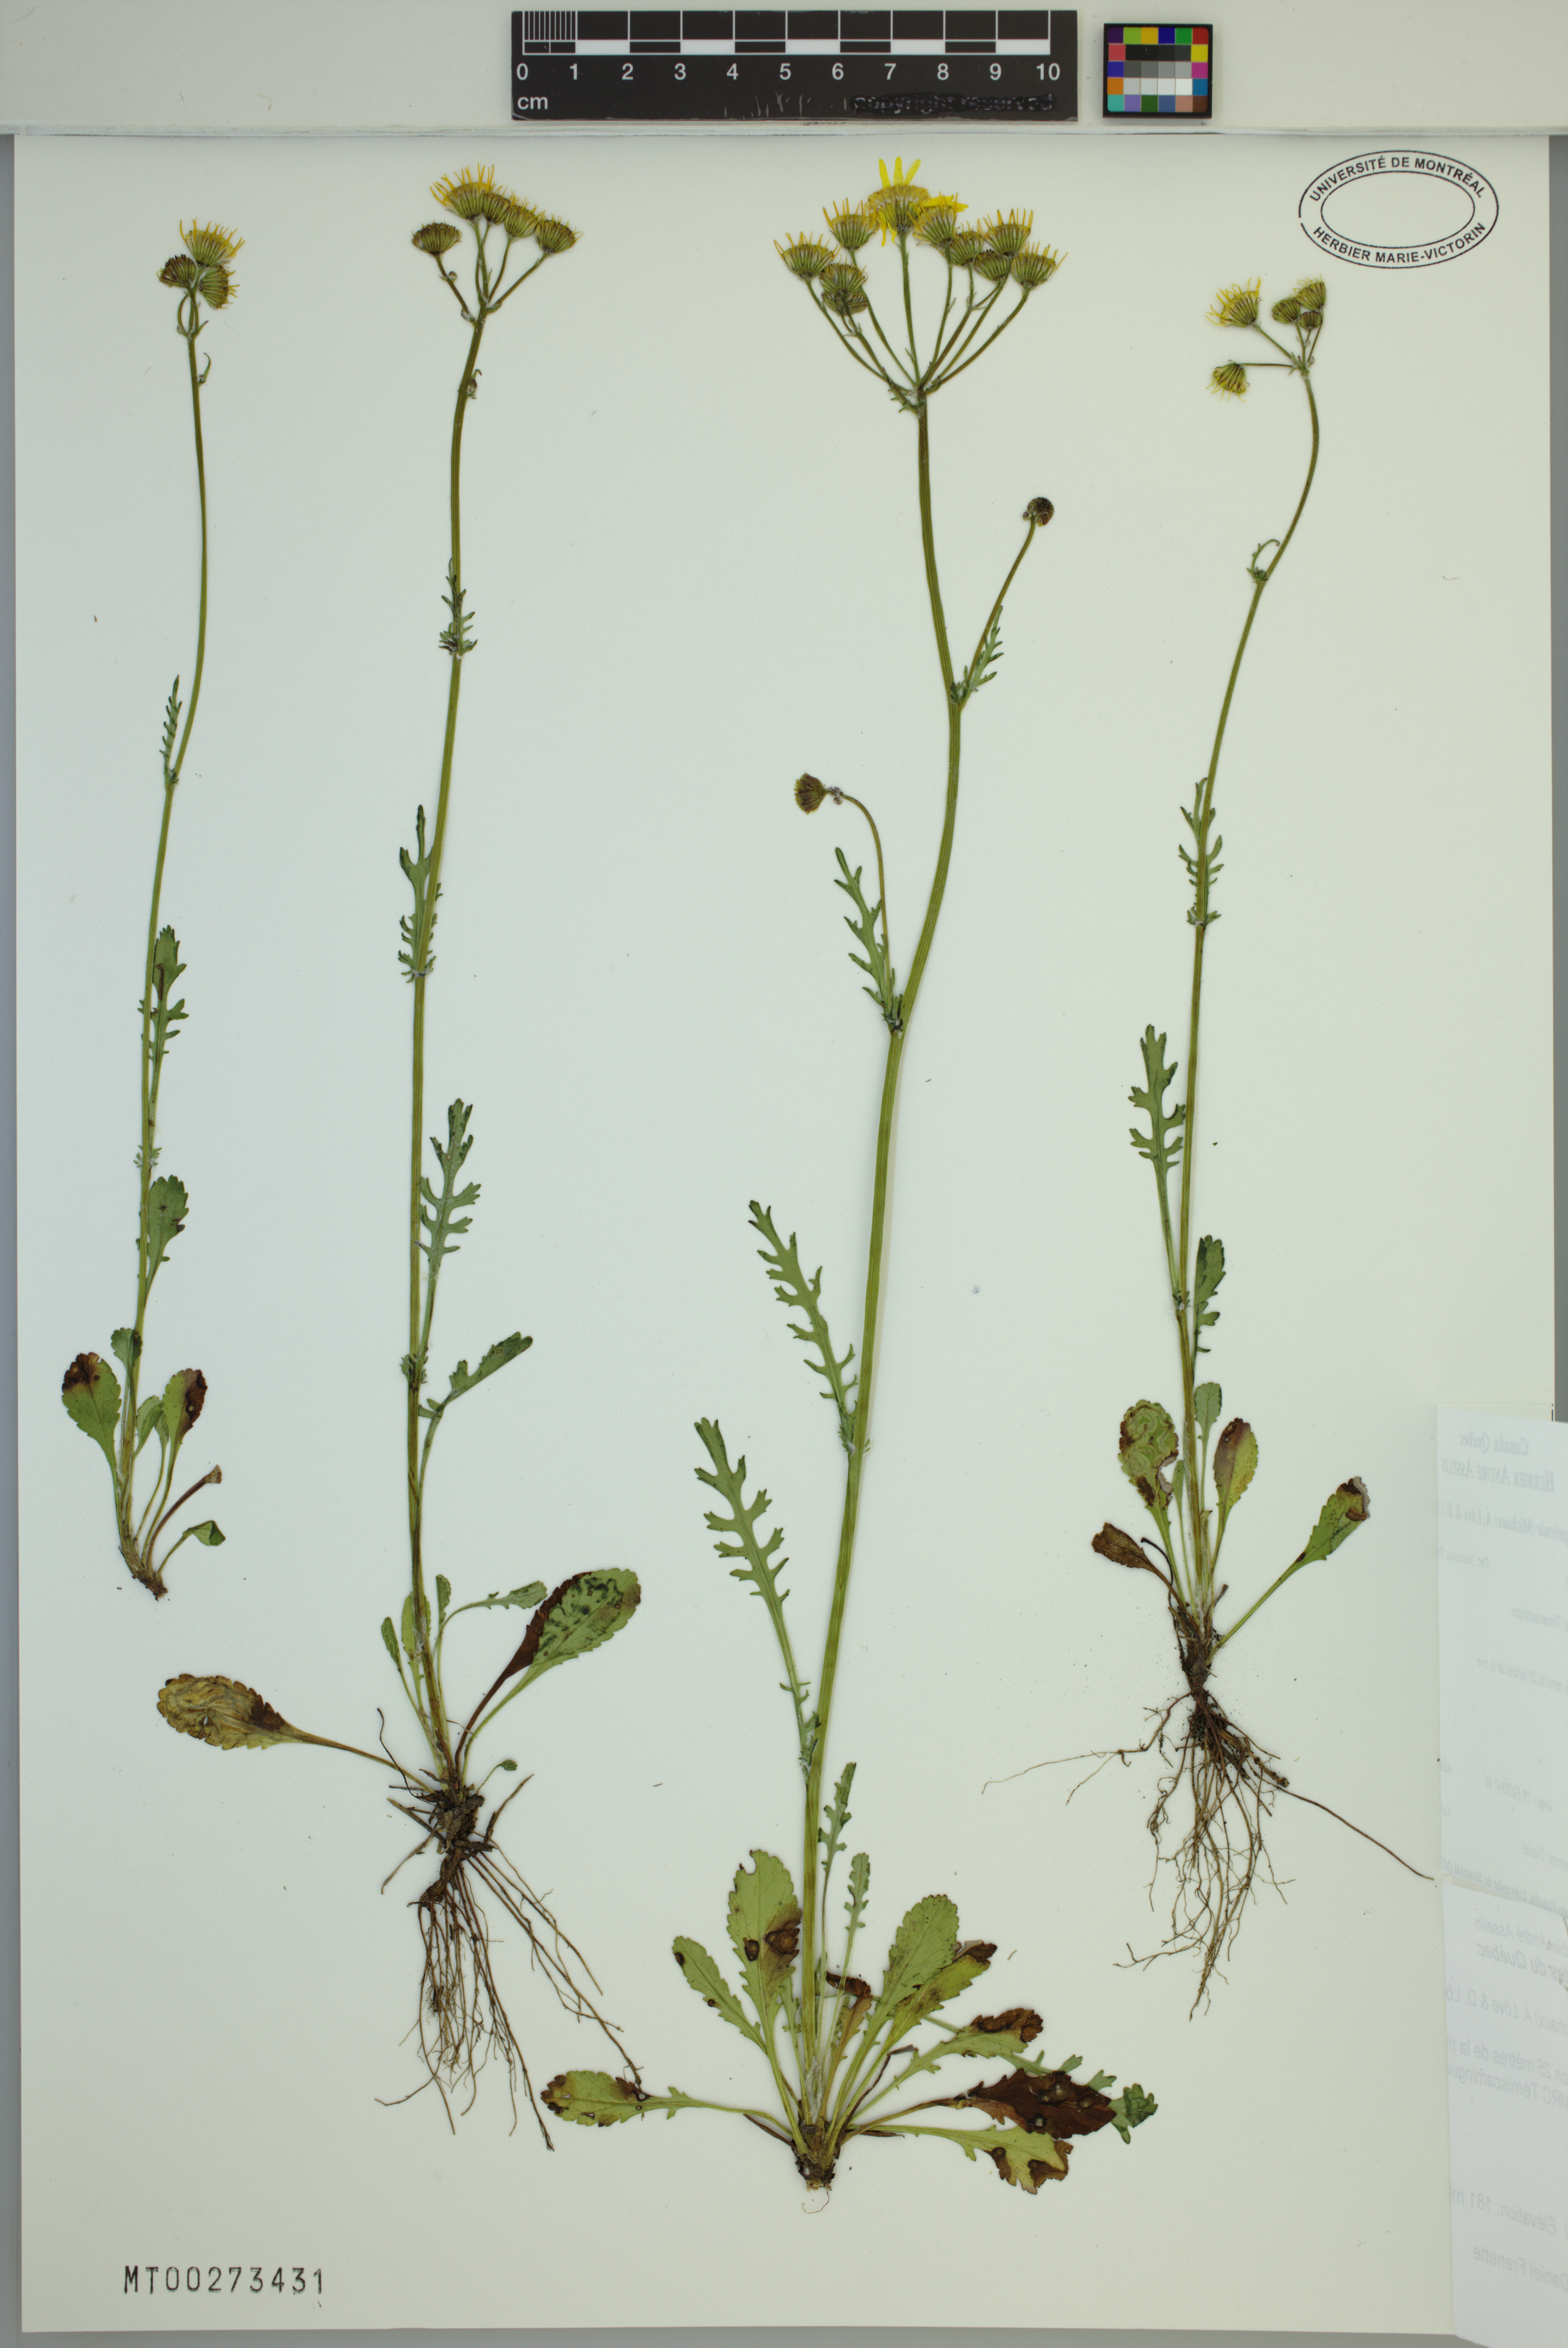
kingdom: Plantae
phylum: Tracheophyta
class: Magnoliopsida
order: Asterales
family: Asteraceae
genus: Packera
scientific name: Packera paupercula
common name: Balsam groundsel
